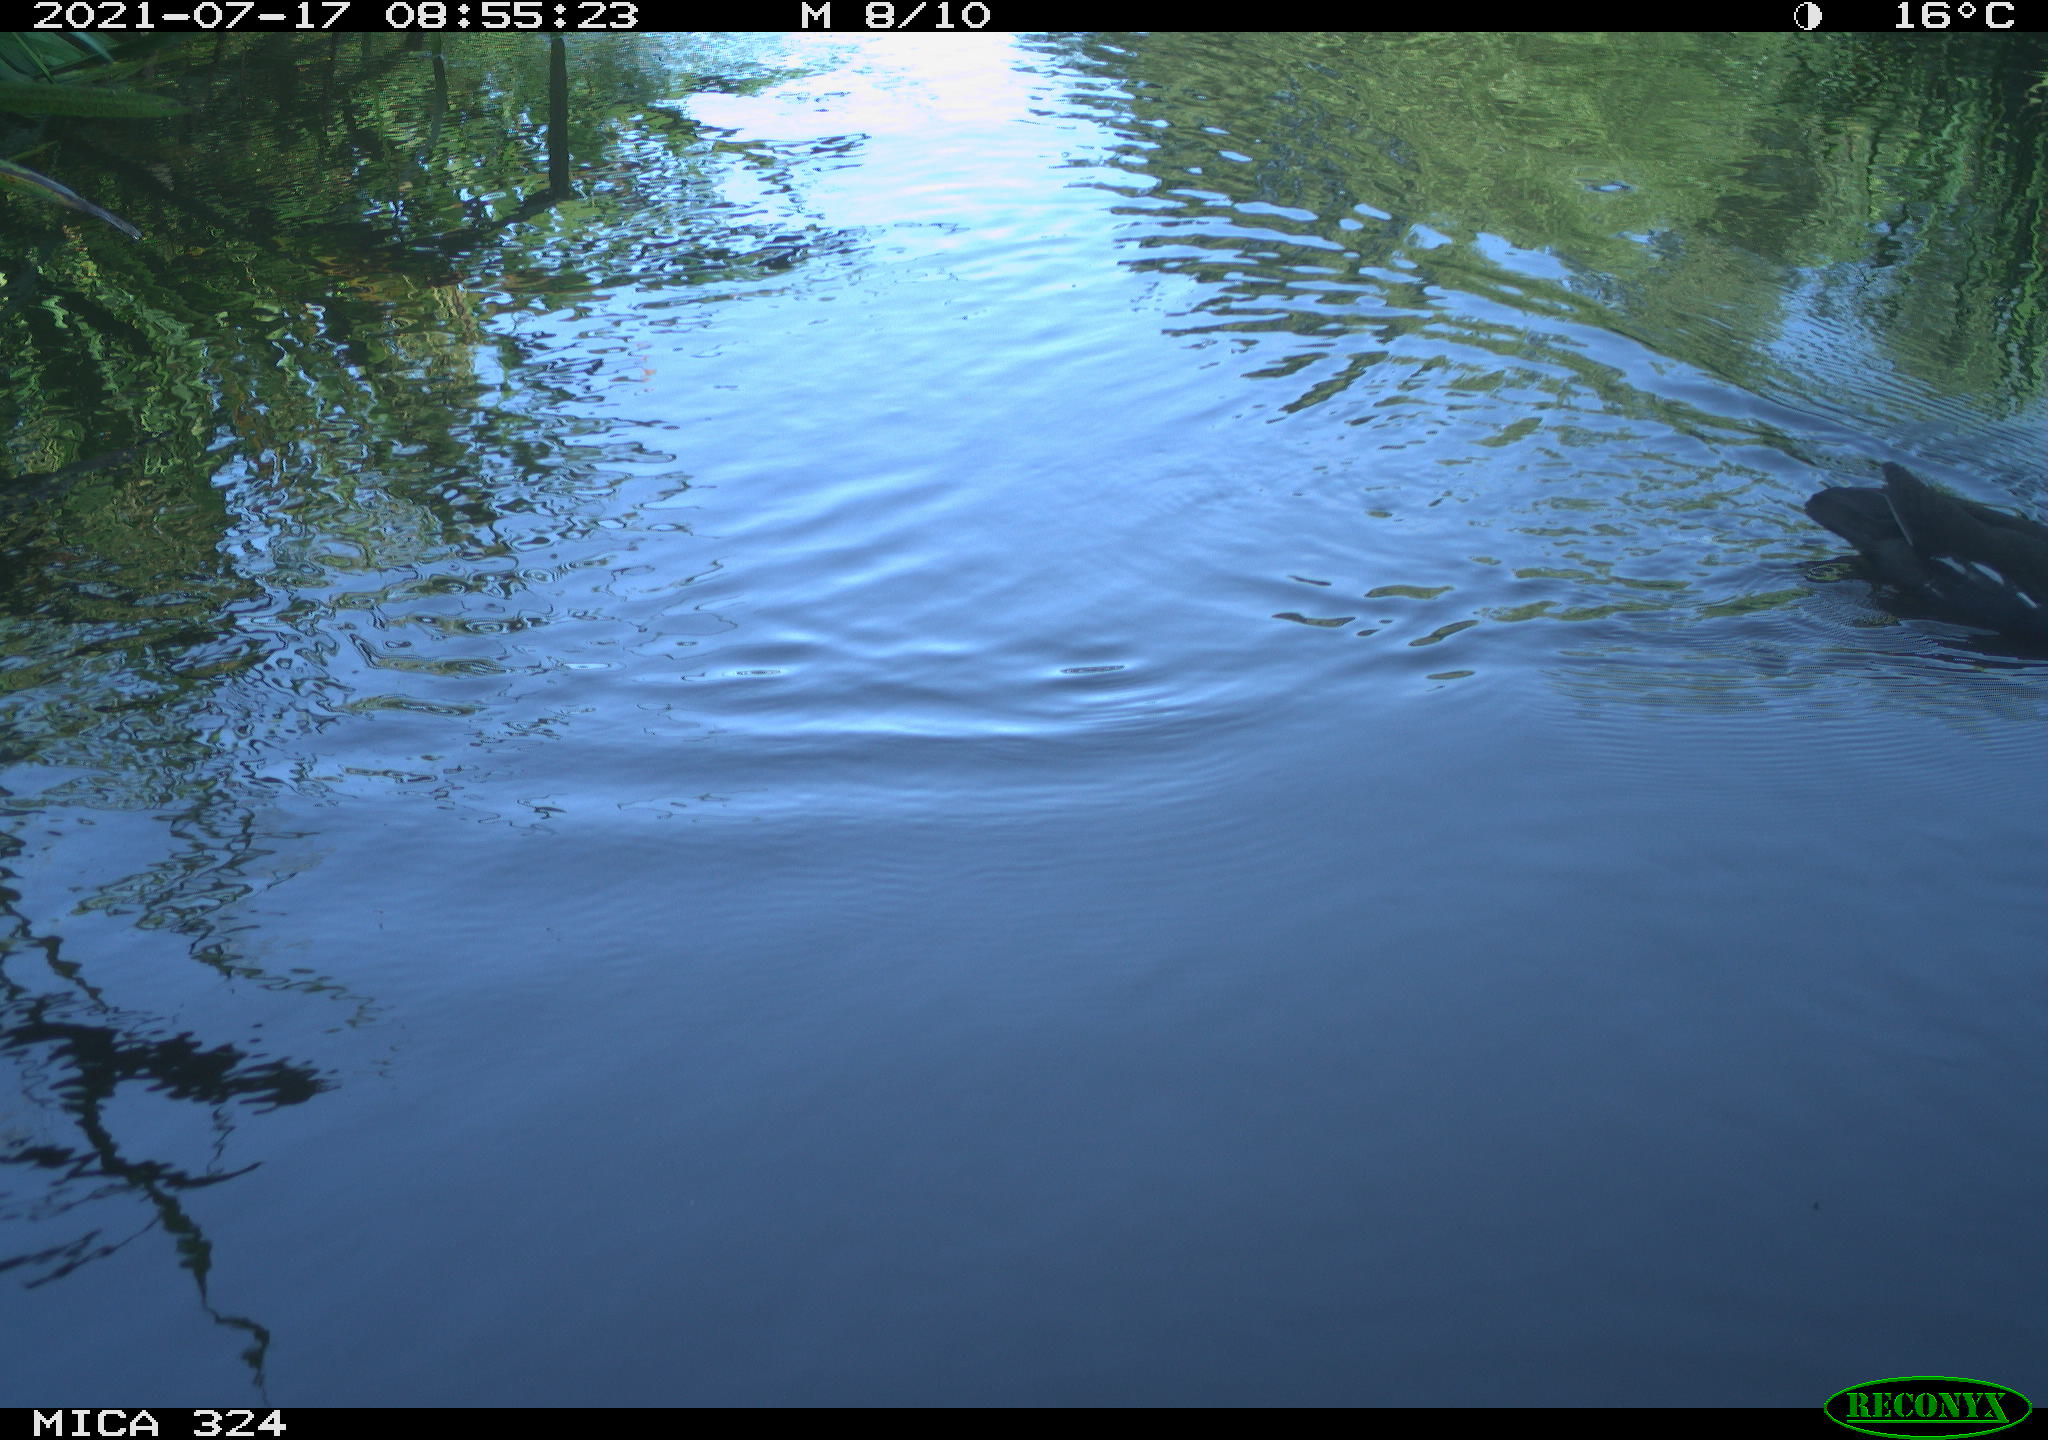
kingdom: Animalia
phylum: Chordata
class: Aves
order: Gruiformes
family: Rallidae
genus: Gallinula
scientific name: Gallinula chloropus
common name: Common moorhen
